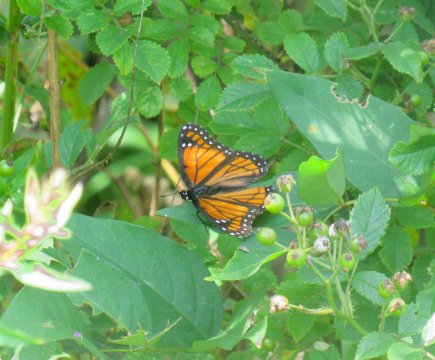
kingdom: Animalia
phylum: Arthropoda
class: Insecta
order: Lepidoptera
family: Nymphalidae
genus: Limenitis
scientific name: Limenitis archippus
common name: Viceroy
